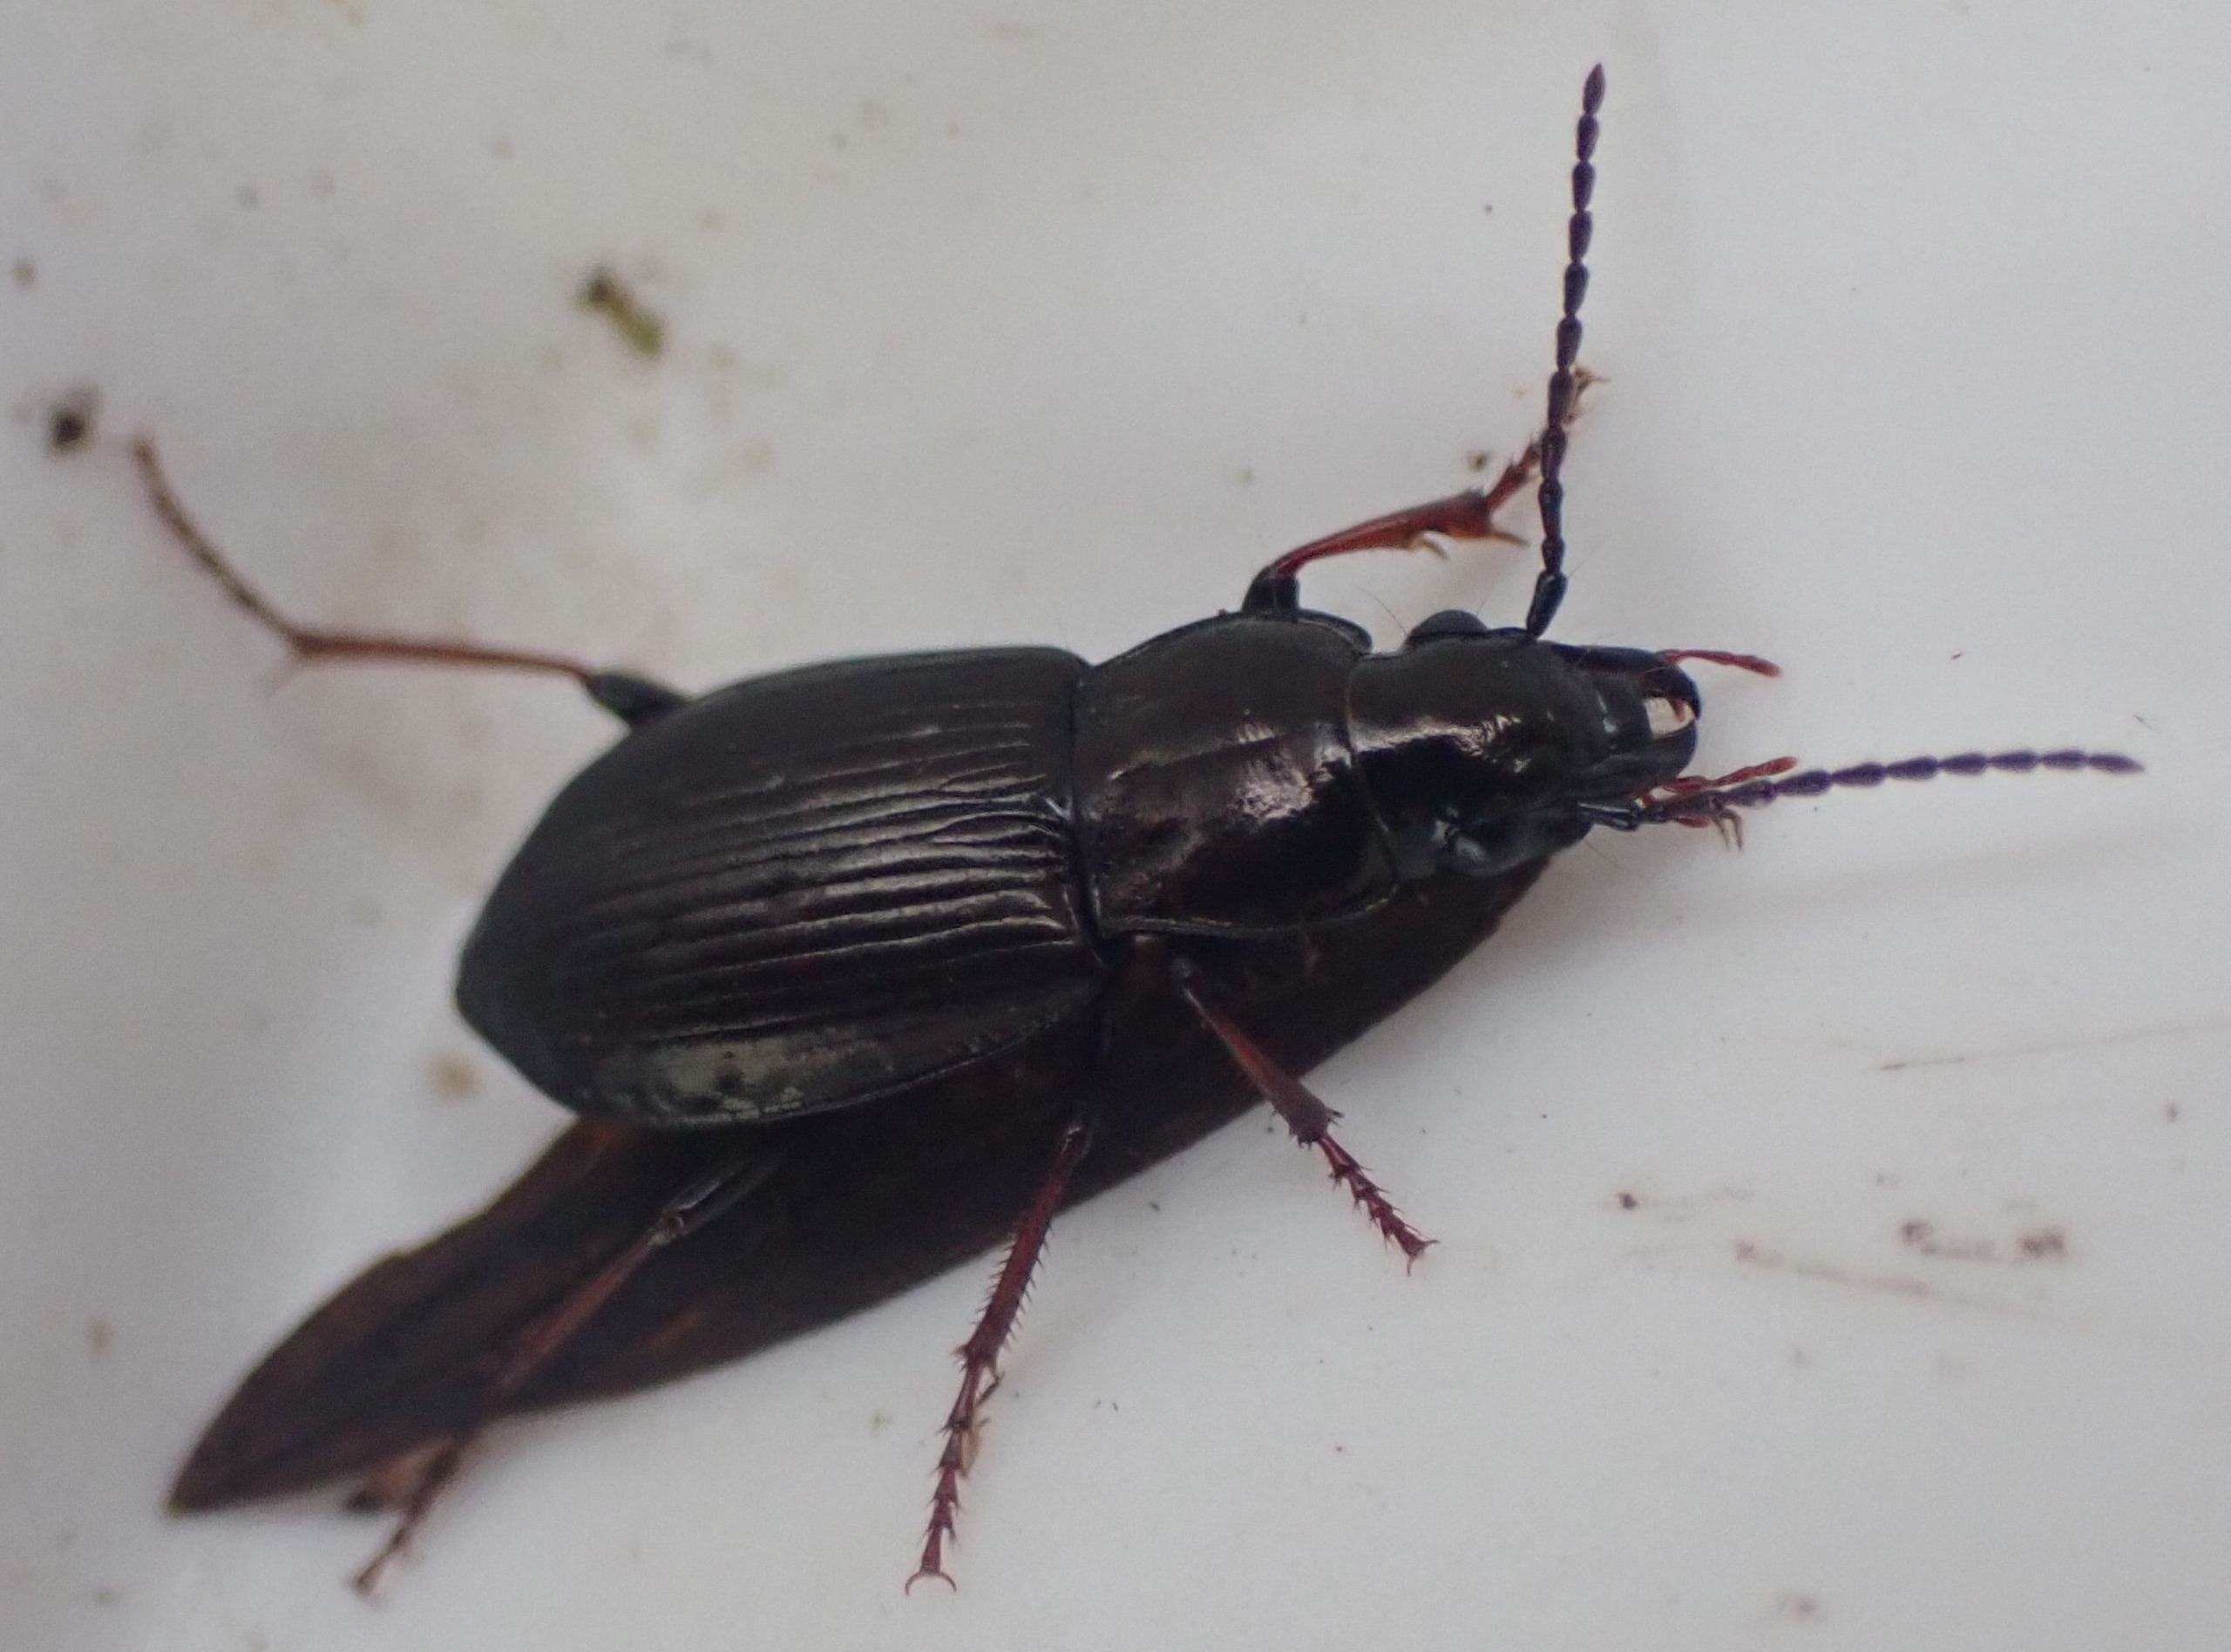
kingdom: Animalia
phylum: Arthropoda
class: Insecta
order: Coleoptera
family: Carabidae
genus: Pterostichus
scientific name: Pterostichus oblongopunctatus
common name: Bronzejordløber
